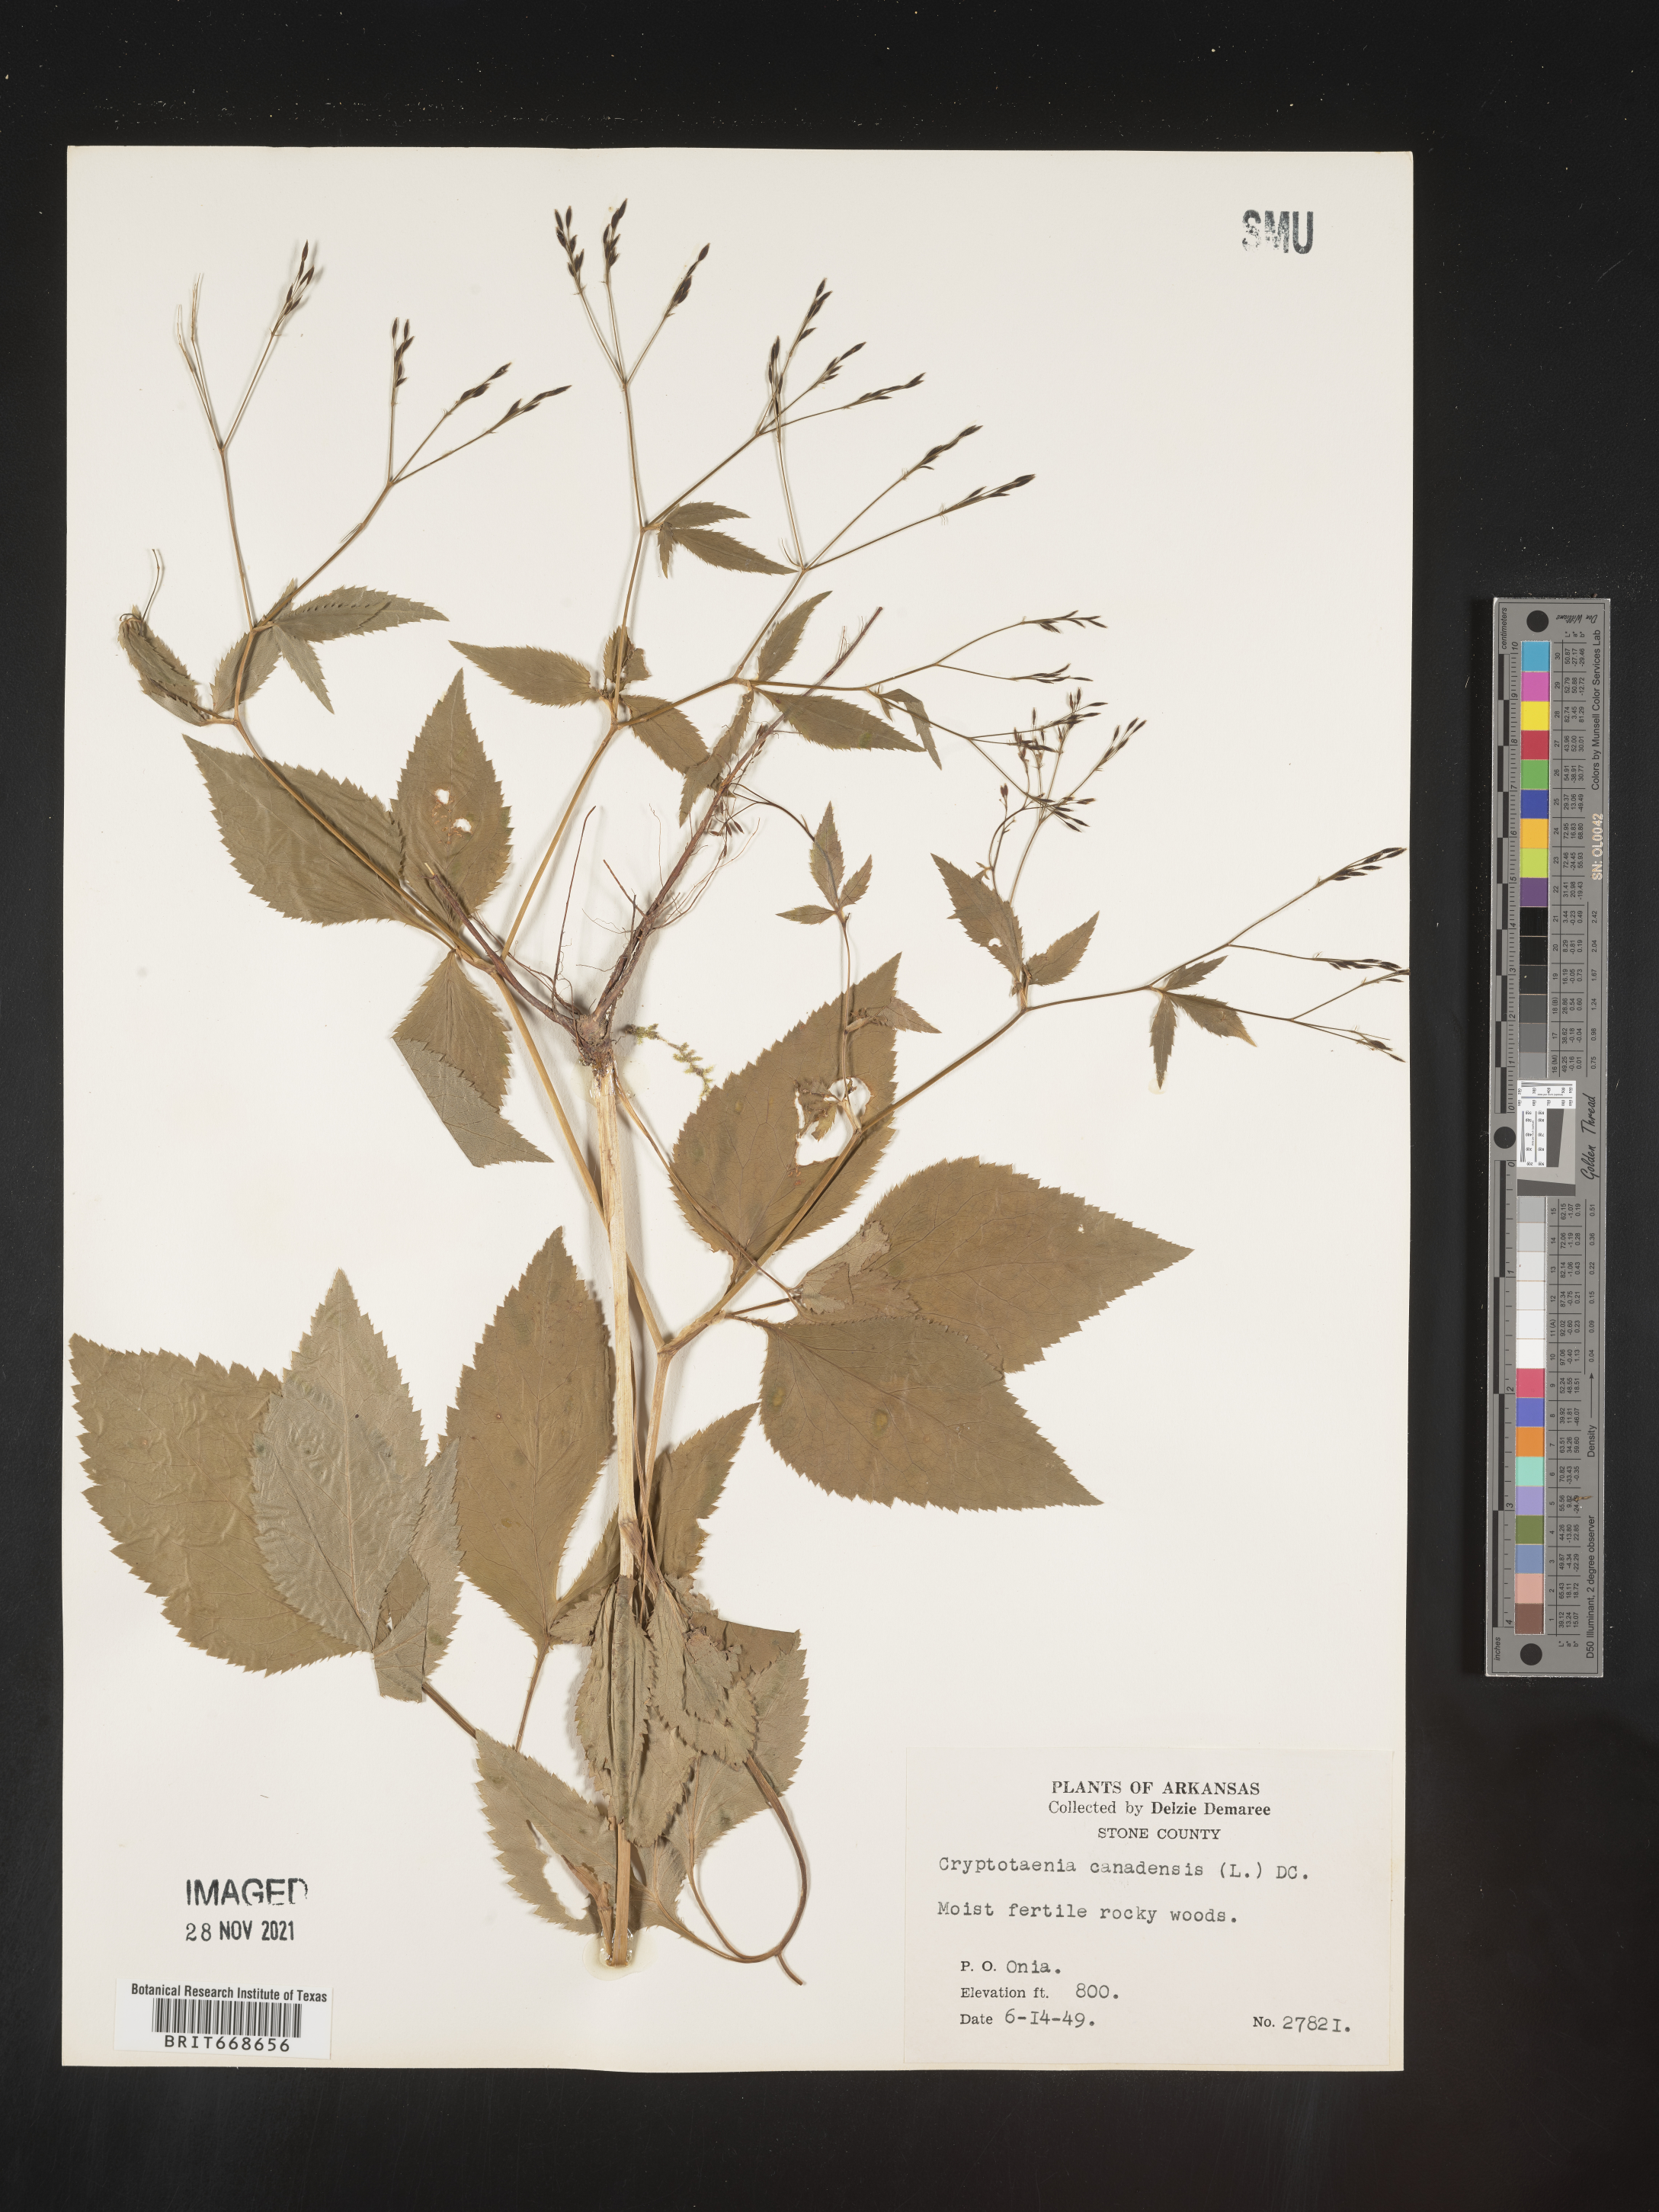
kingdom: Plantae
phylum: Tracheophyta
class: Magnoliopsida
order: Apiales
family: Apiaceae
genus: Cryptotaenia
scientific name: Cryptotaenia canadensis
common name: Honewort
